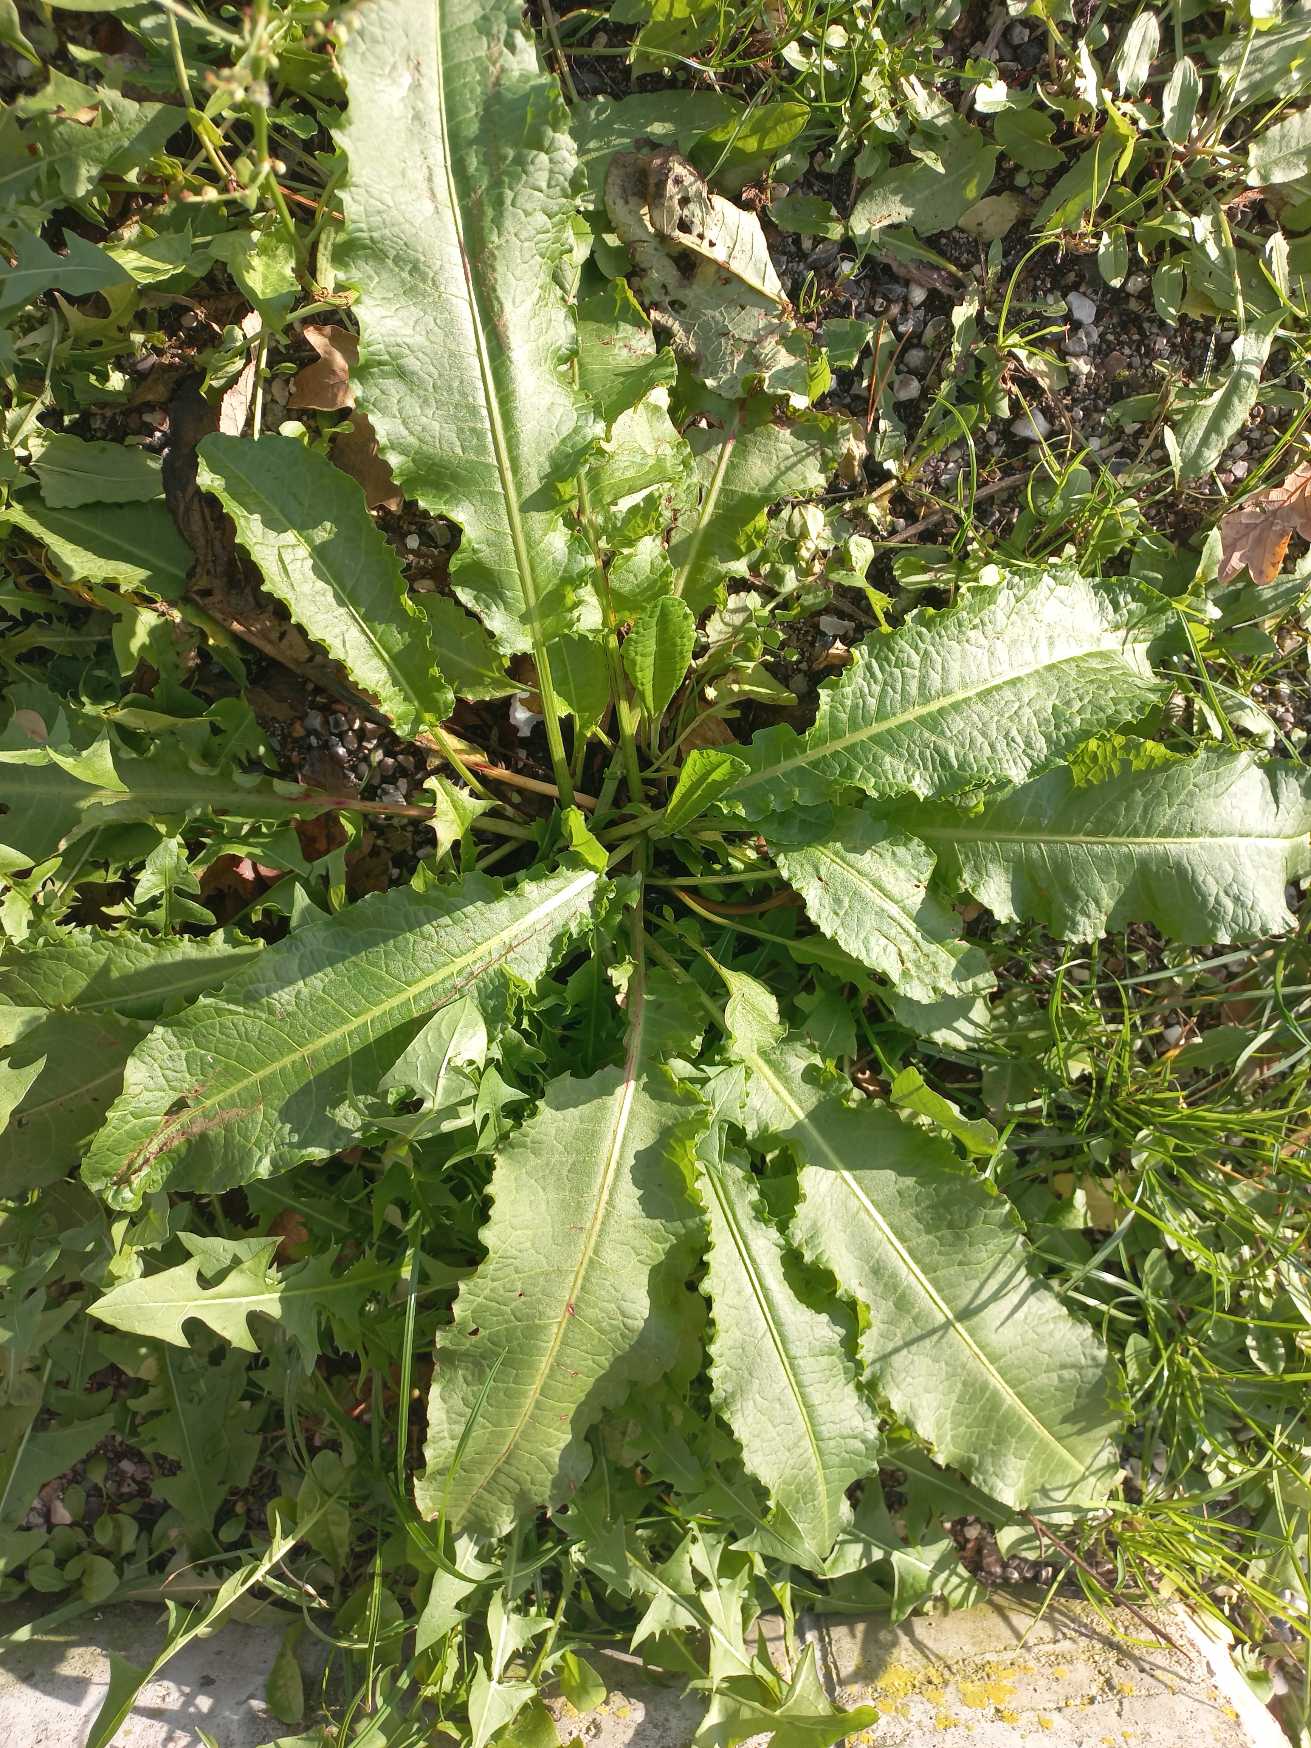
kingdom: Plantae
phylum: Tracheophyta
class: Magnoliopsida
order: Caryophyllales
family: Polygonaceae
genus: Rumex
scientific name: Rumex
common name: Skræppeslægten
